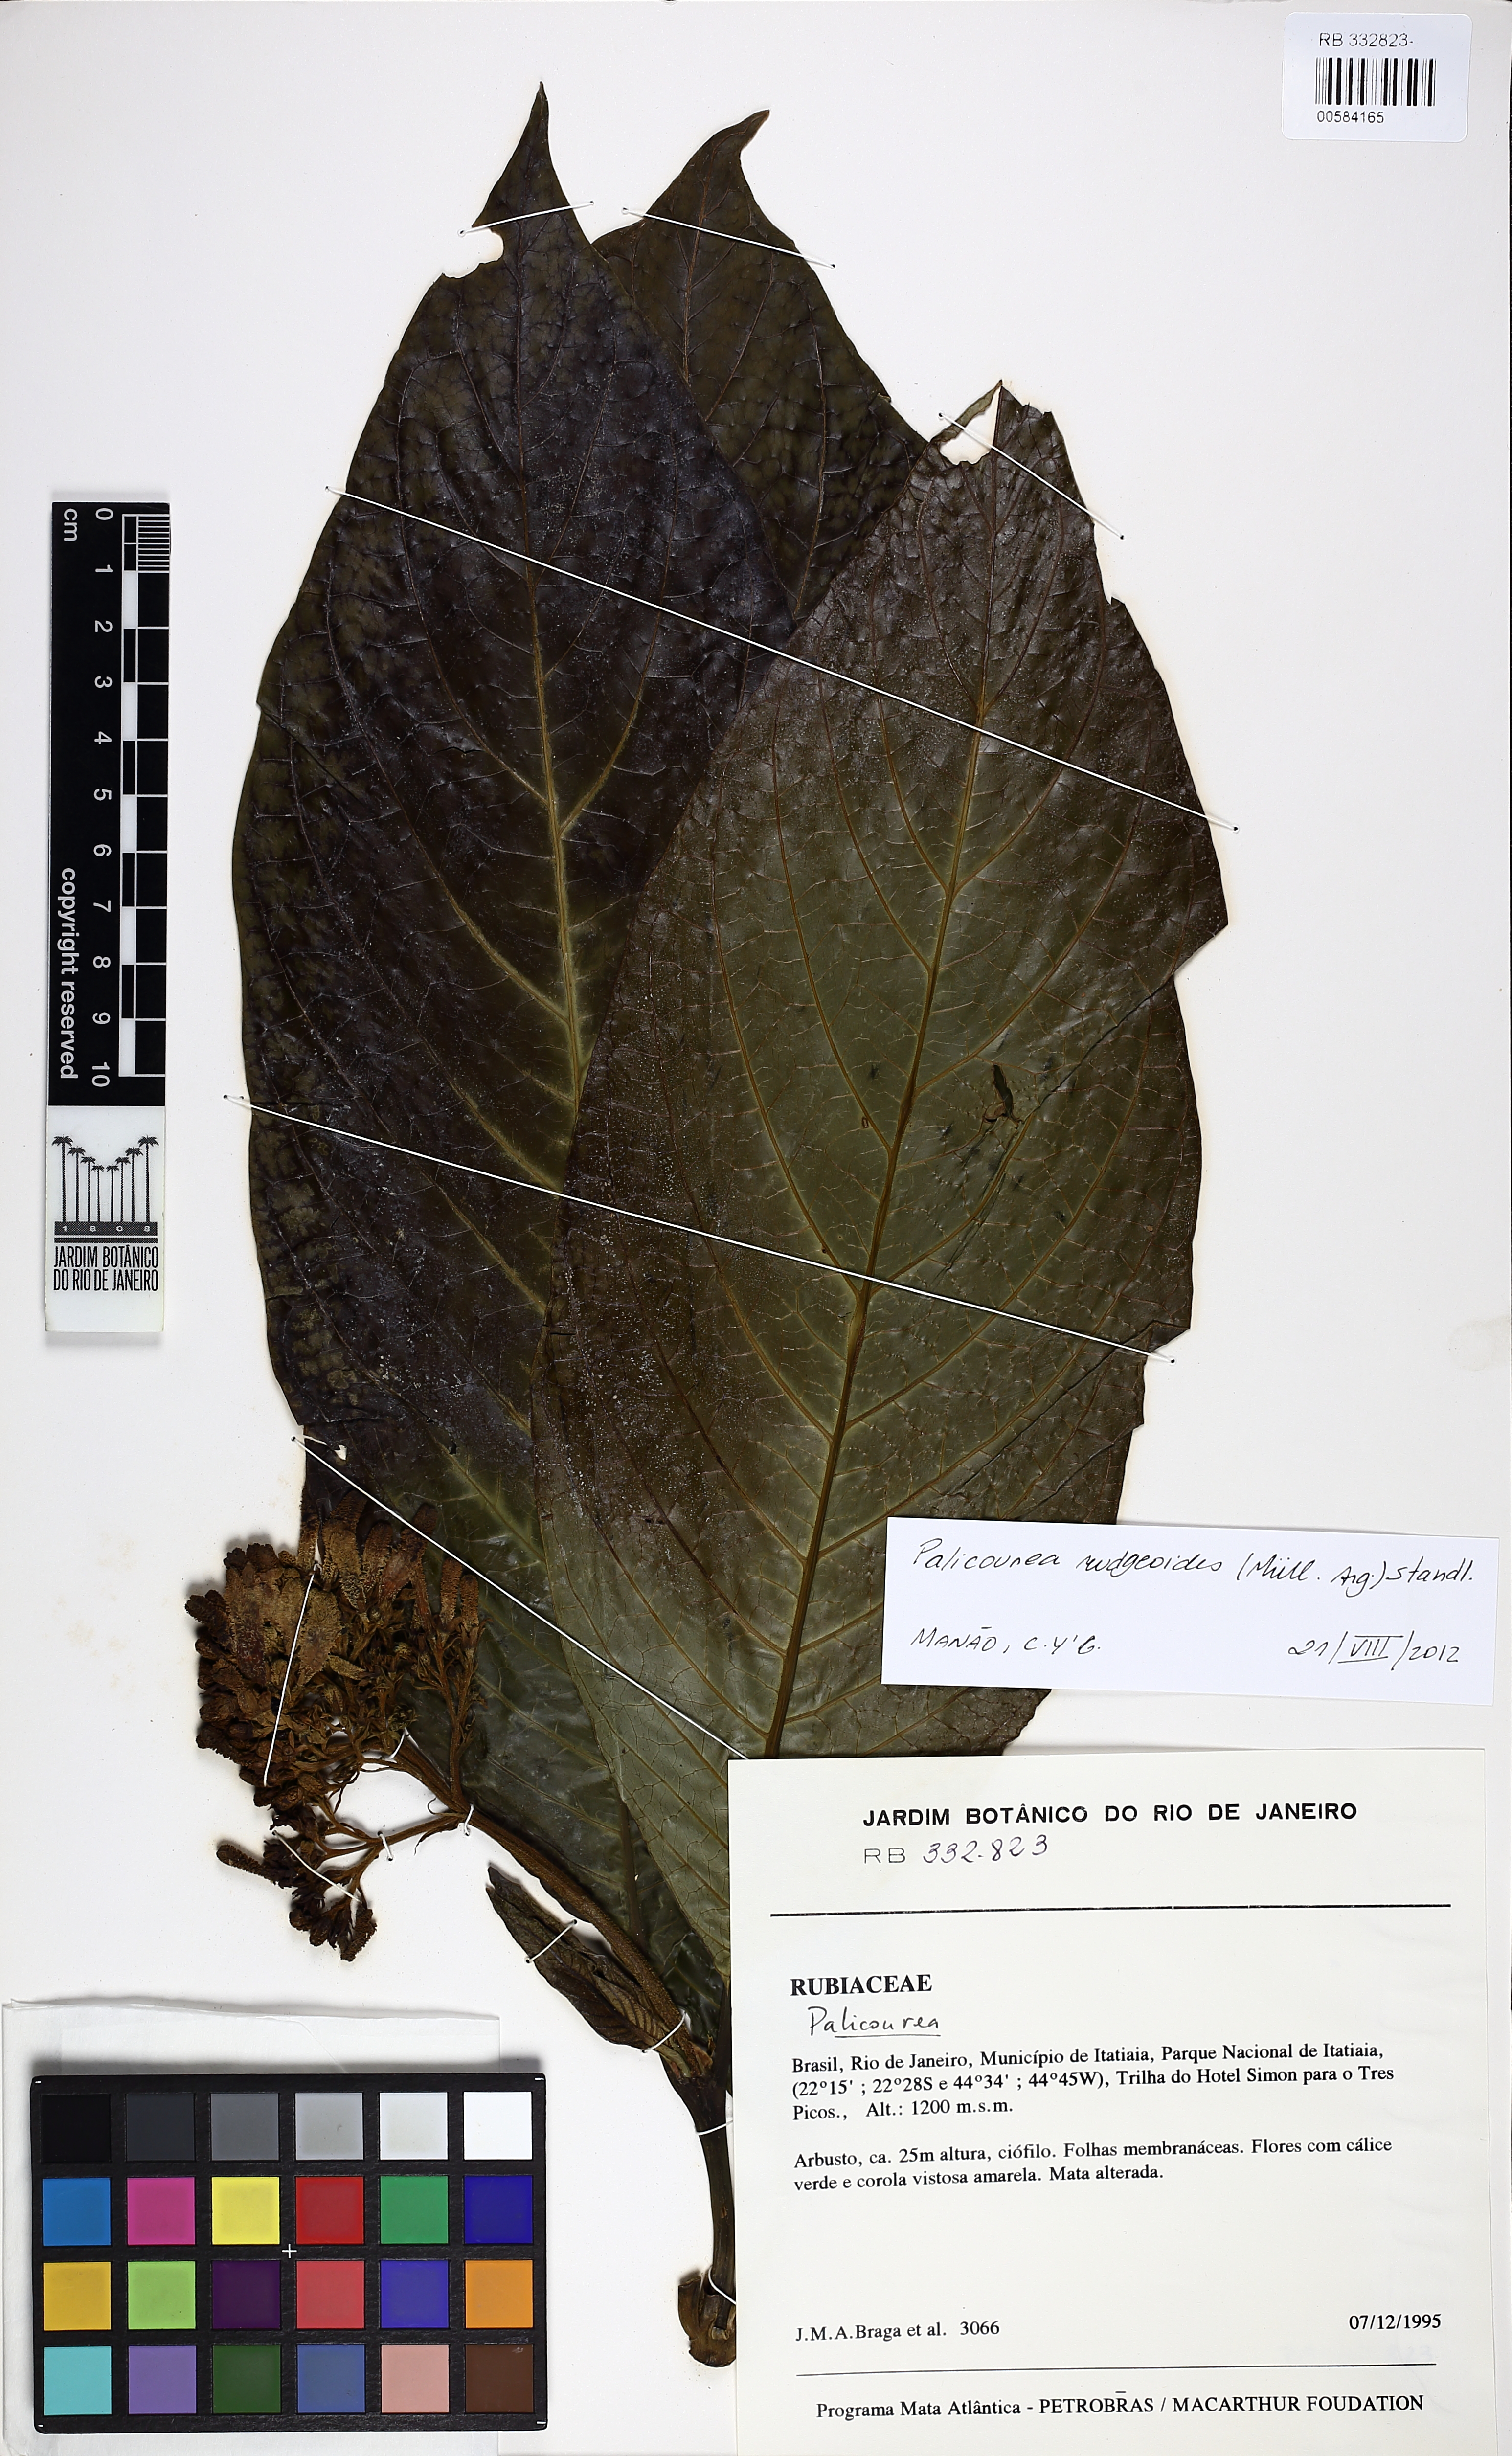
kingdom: Plantae
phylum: Tracheophyta
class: Magnoliopsida
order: Gentianales
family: Rubiaceae
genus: Palicourea
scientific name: Palicourea rudgeoides
